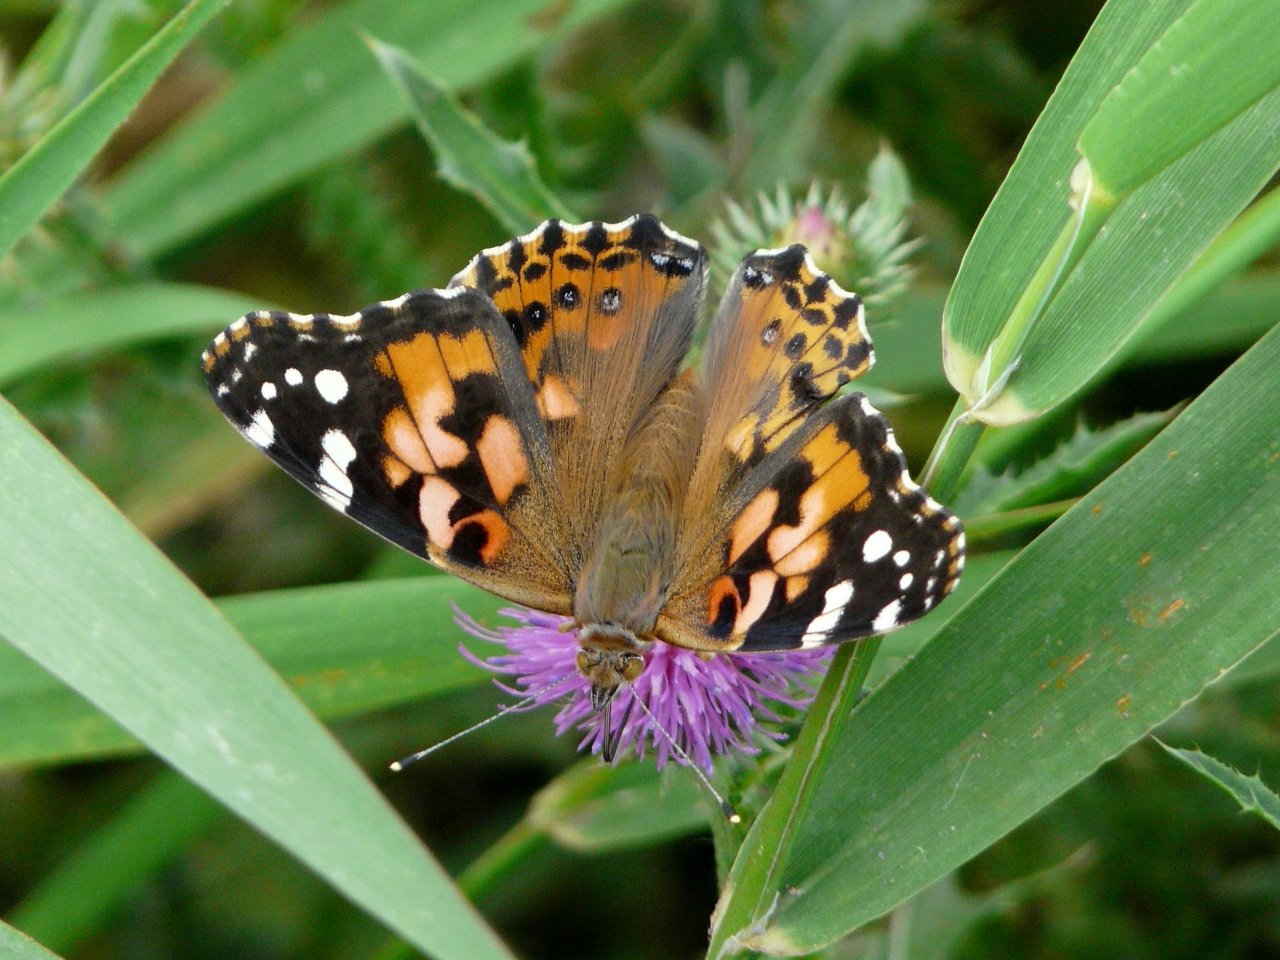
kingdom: Animalia
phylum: Arthropoda
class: Insecta
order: Lepidoptera
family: Nymphalidae
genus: Vanessa
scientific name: Vanessa cardui
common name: Painted Lady
